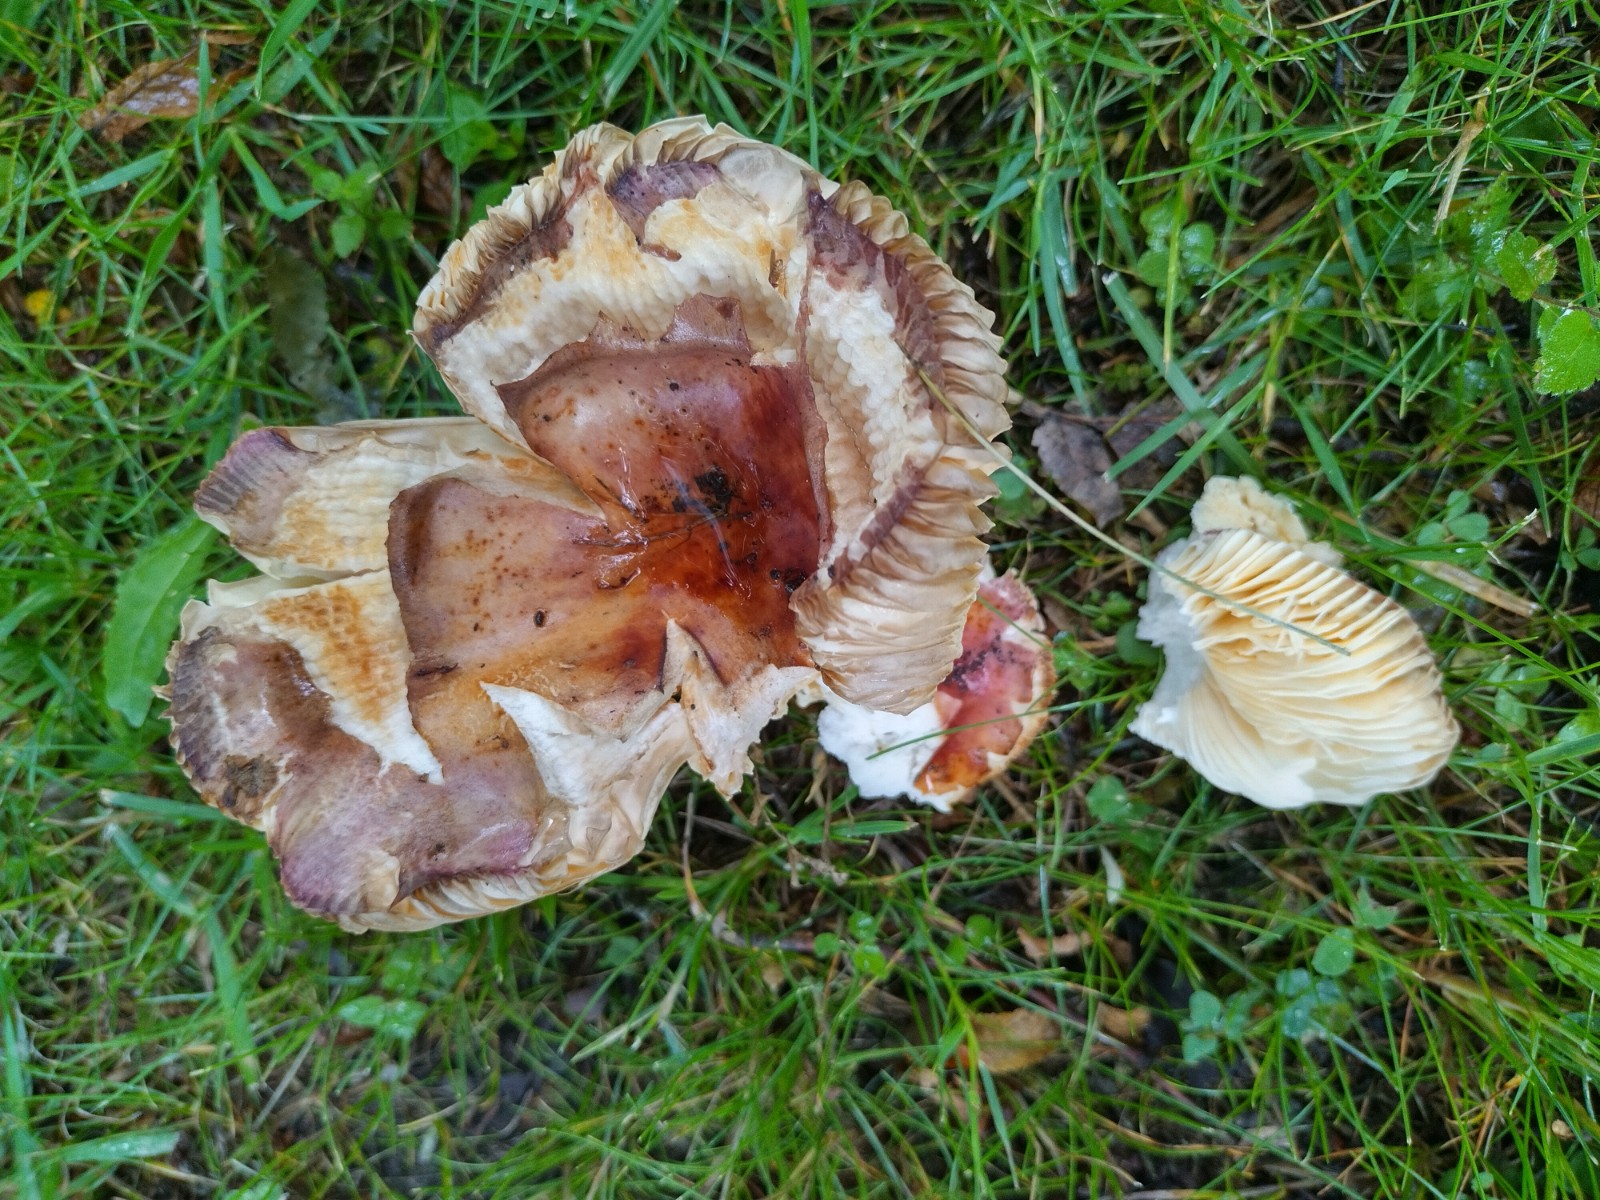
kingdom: Fungi
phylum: Basidiomycota
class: Agaricomycetes
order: Russulales
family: Russulaceae
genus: Russula
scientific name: Russula carpini
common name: avnbøg-skørhat
